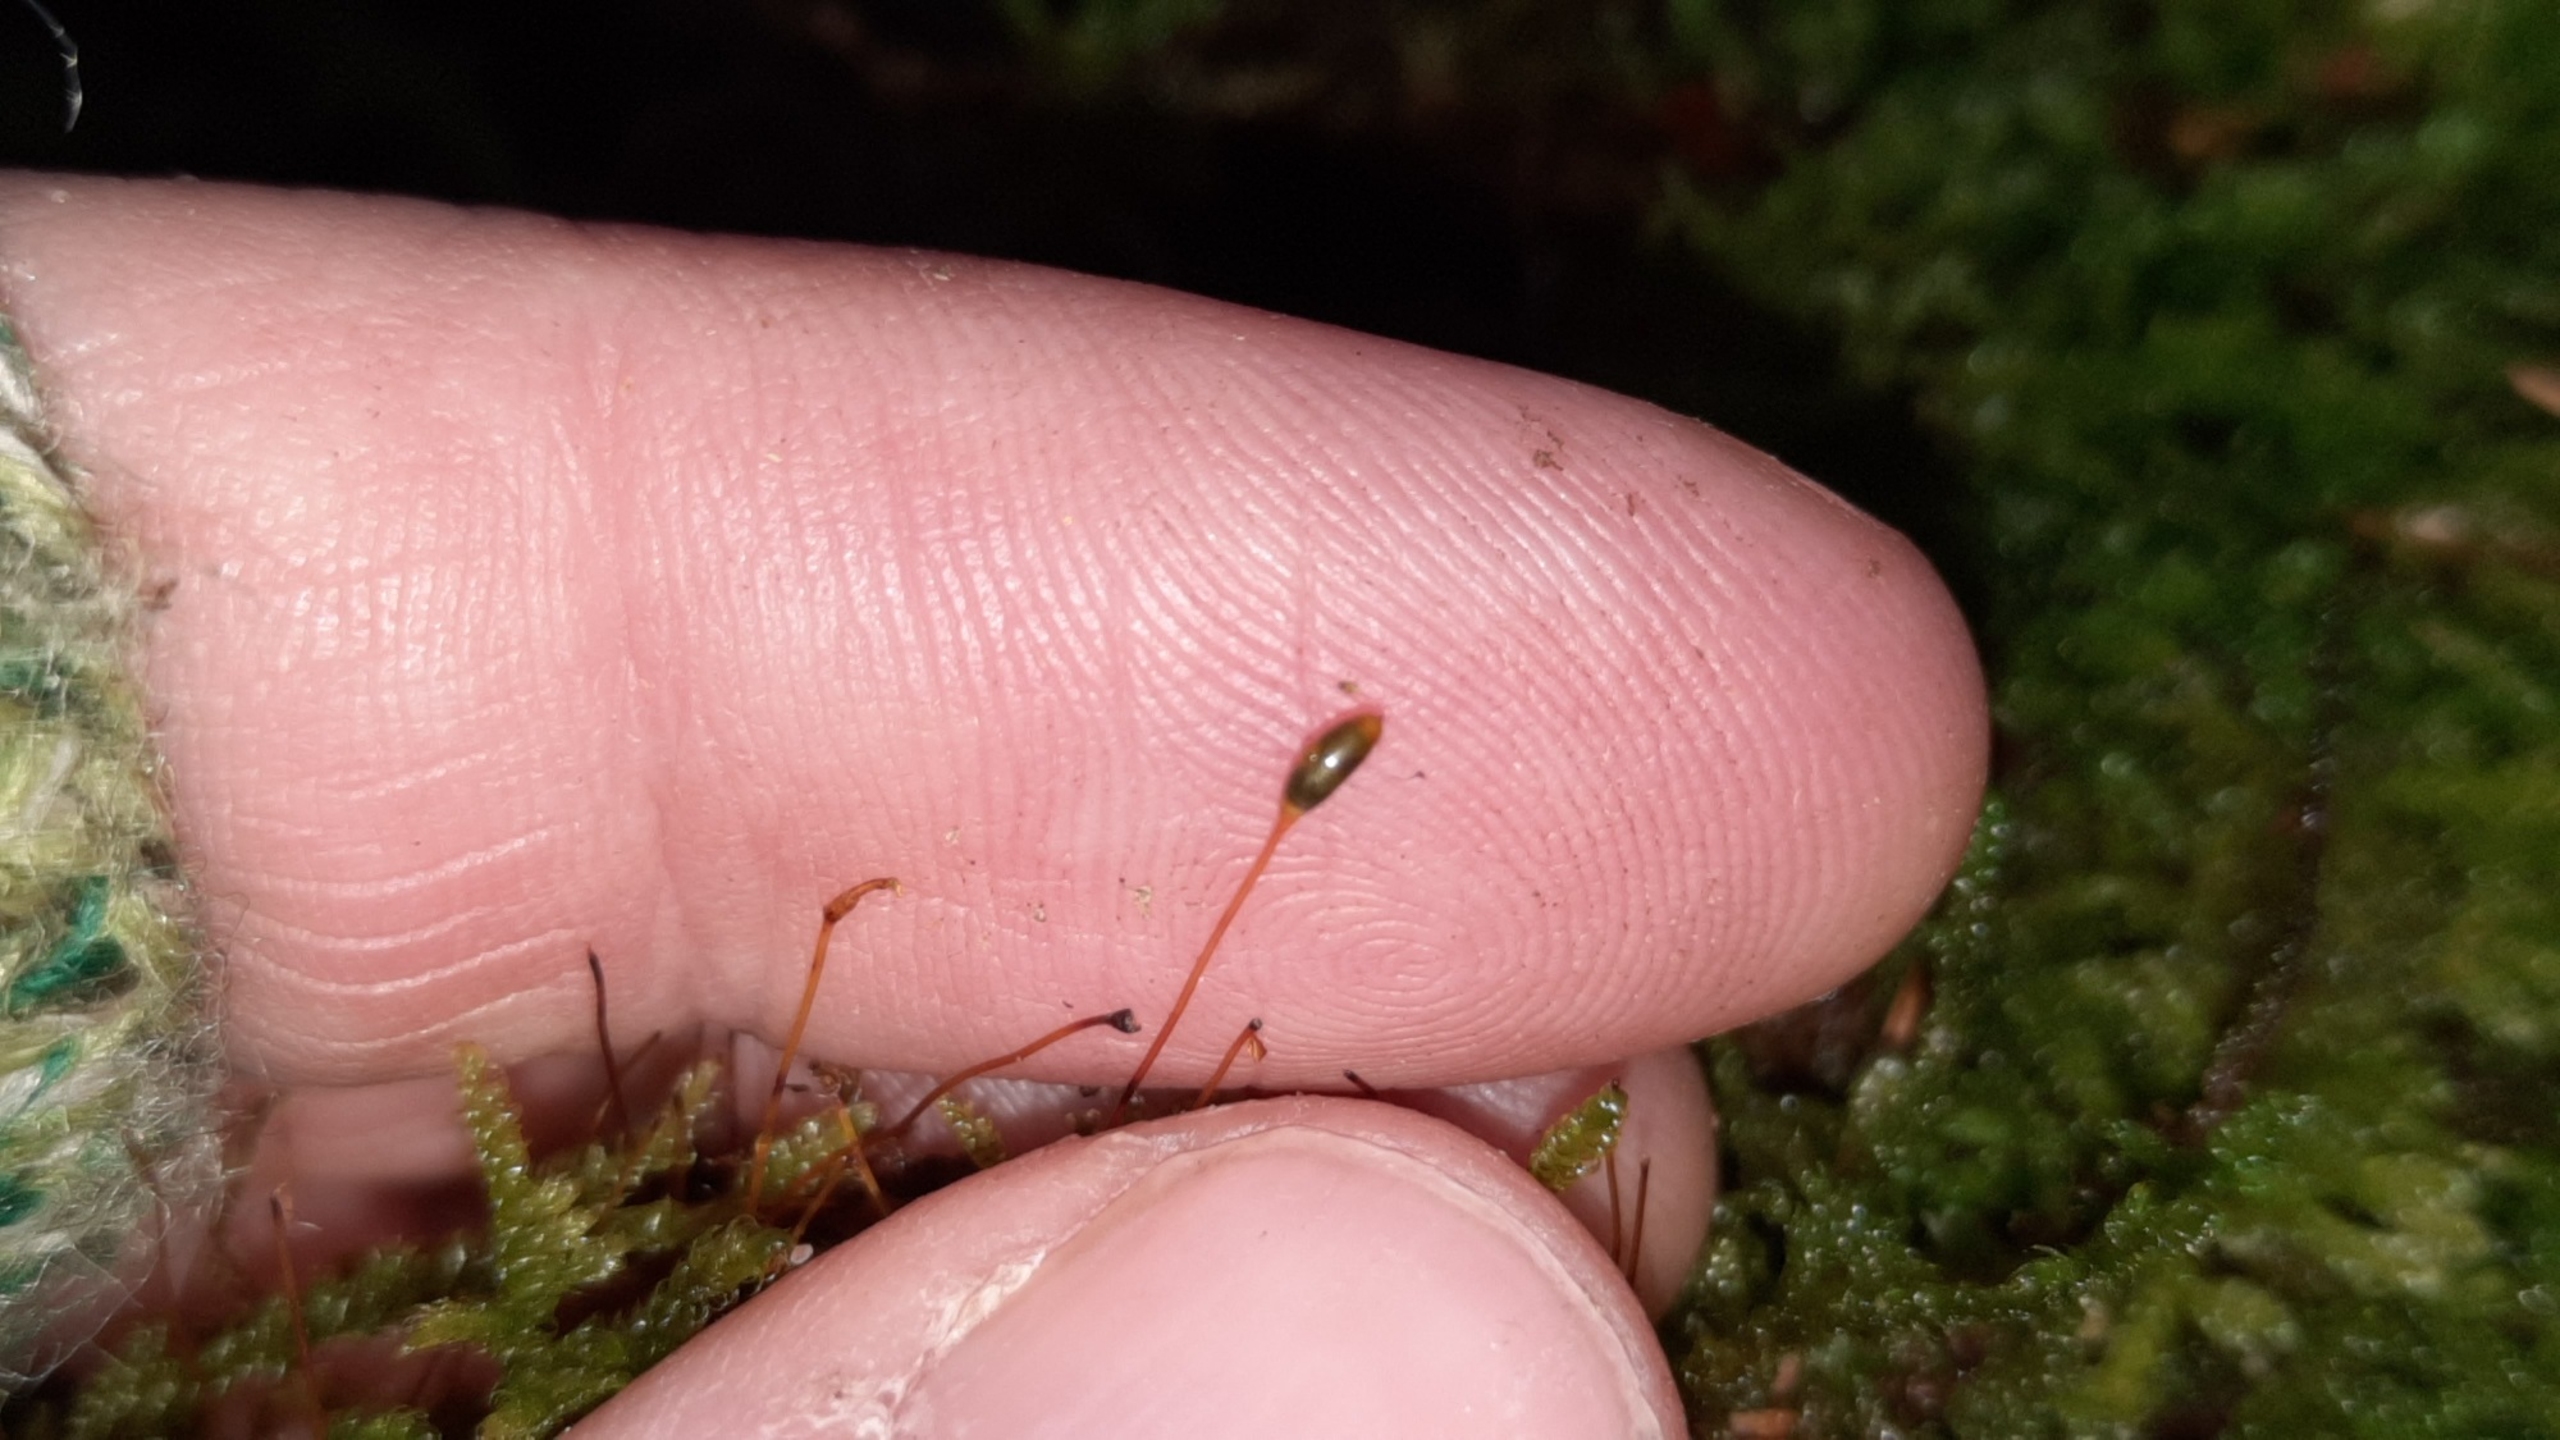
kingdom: Plantae
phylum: Bryophyta
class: Bryopsida
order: Hypnales
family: Hypnaceae
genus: Hypnum
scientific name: Hypnum andoi
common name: Vortet cypresmos
